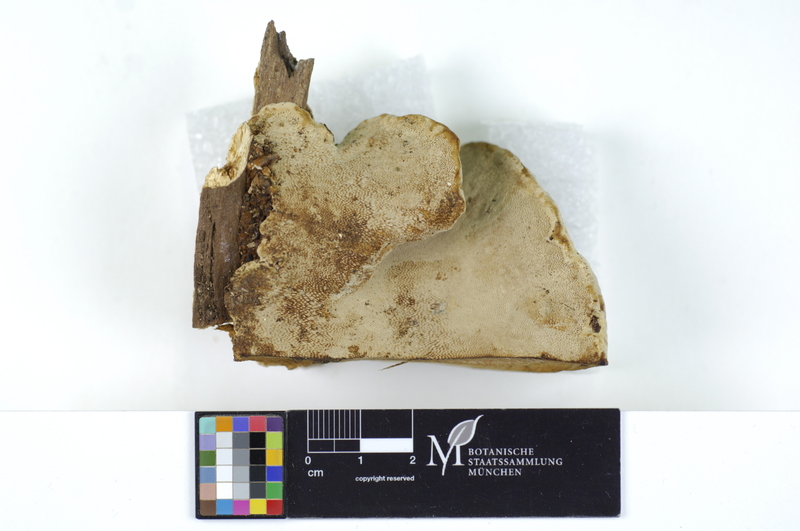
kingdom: Fungi
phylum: Basidiomycota
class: Agaricomycetes
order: Polyporales
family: Polyporaceae
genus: Fomes
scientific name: Fomes fomentarius
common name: Hoof fungus
